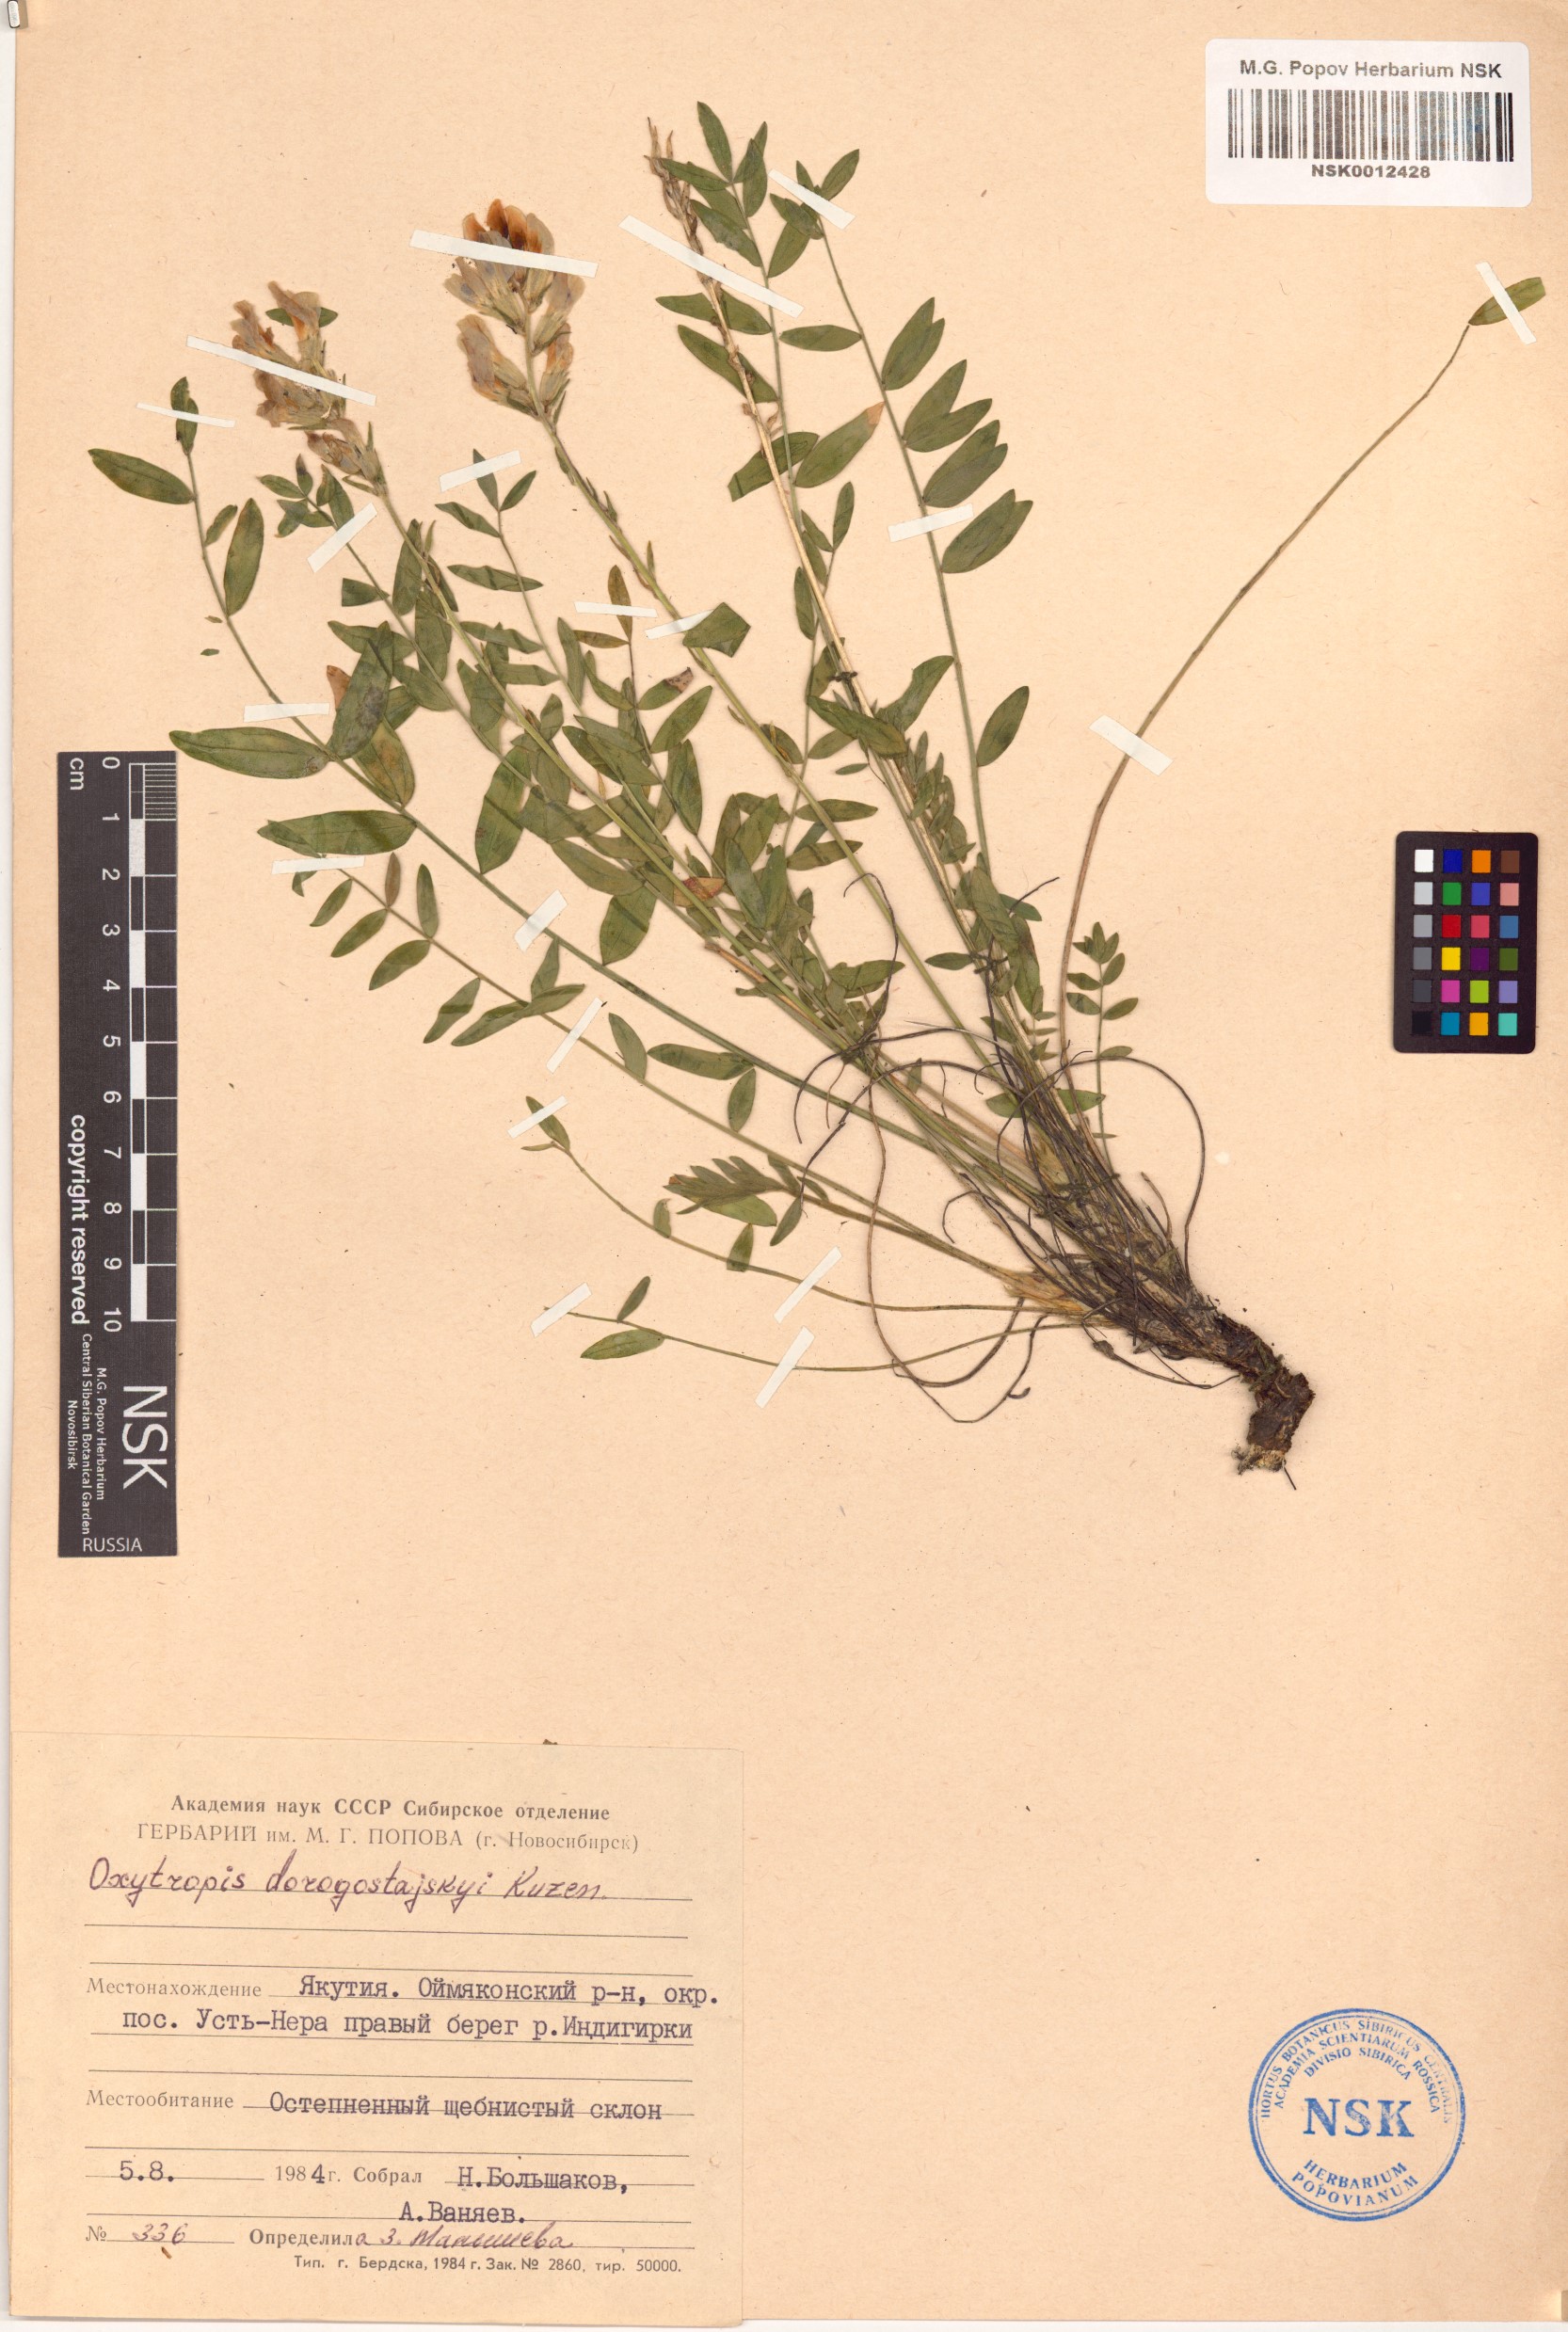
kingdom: Plantae
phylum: Tracheophyta
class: Magnoliopsida
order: Fabales
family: Fabaceae
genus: Oxytropis
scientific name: Oxytropis dorogostajskyi
